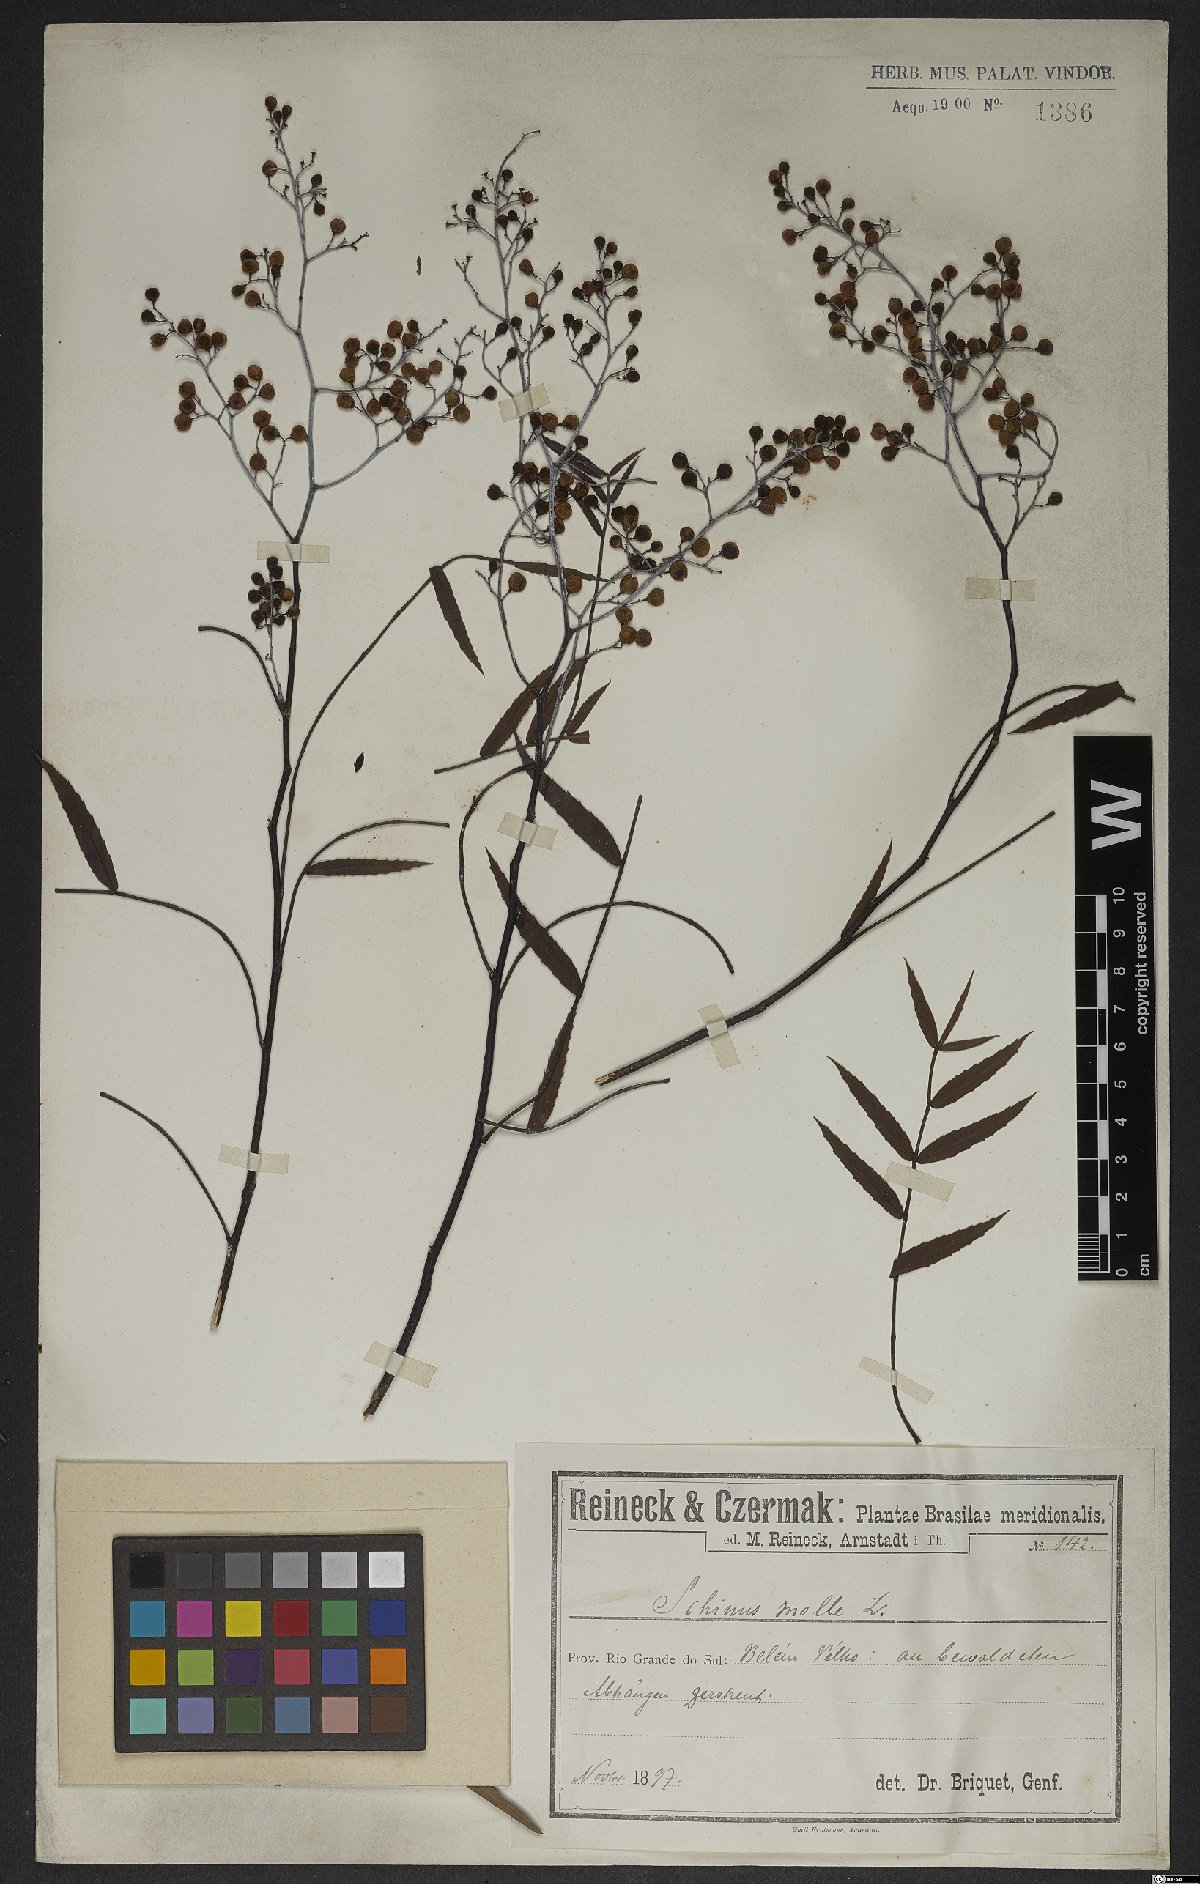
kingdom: Plantae
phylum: Tracheophyta
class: Magnoliopsida
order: Sapindales
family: Anacardiaceae
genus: Schinus
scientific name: Schinus molle
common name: Peruvian peppertree
